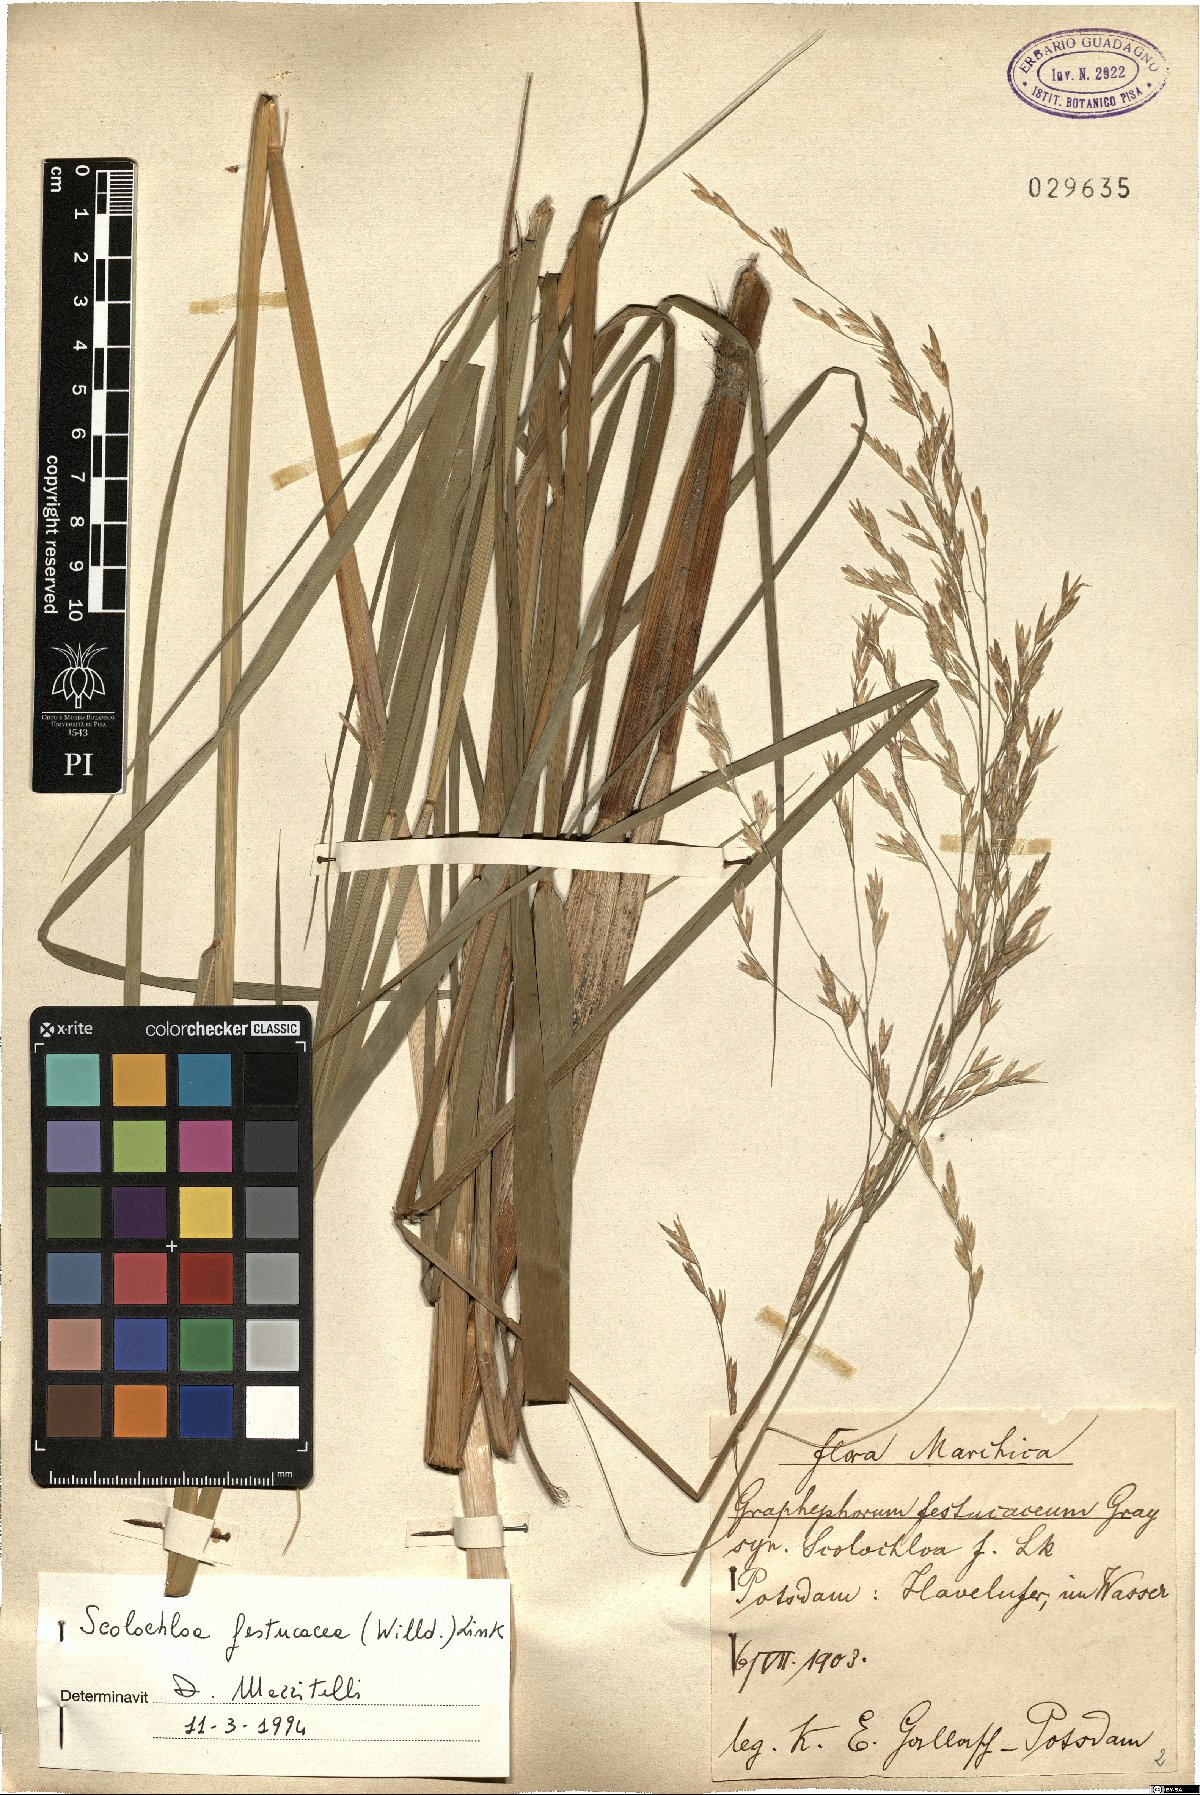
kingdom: Plantae
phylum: Tracheophyta
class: Liliopsida
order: Poales
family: Poaceae
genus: Scolochloa
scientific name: Scolochloa festucacea
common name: Common rivergrass
